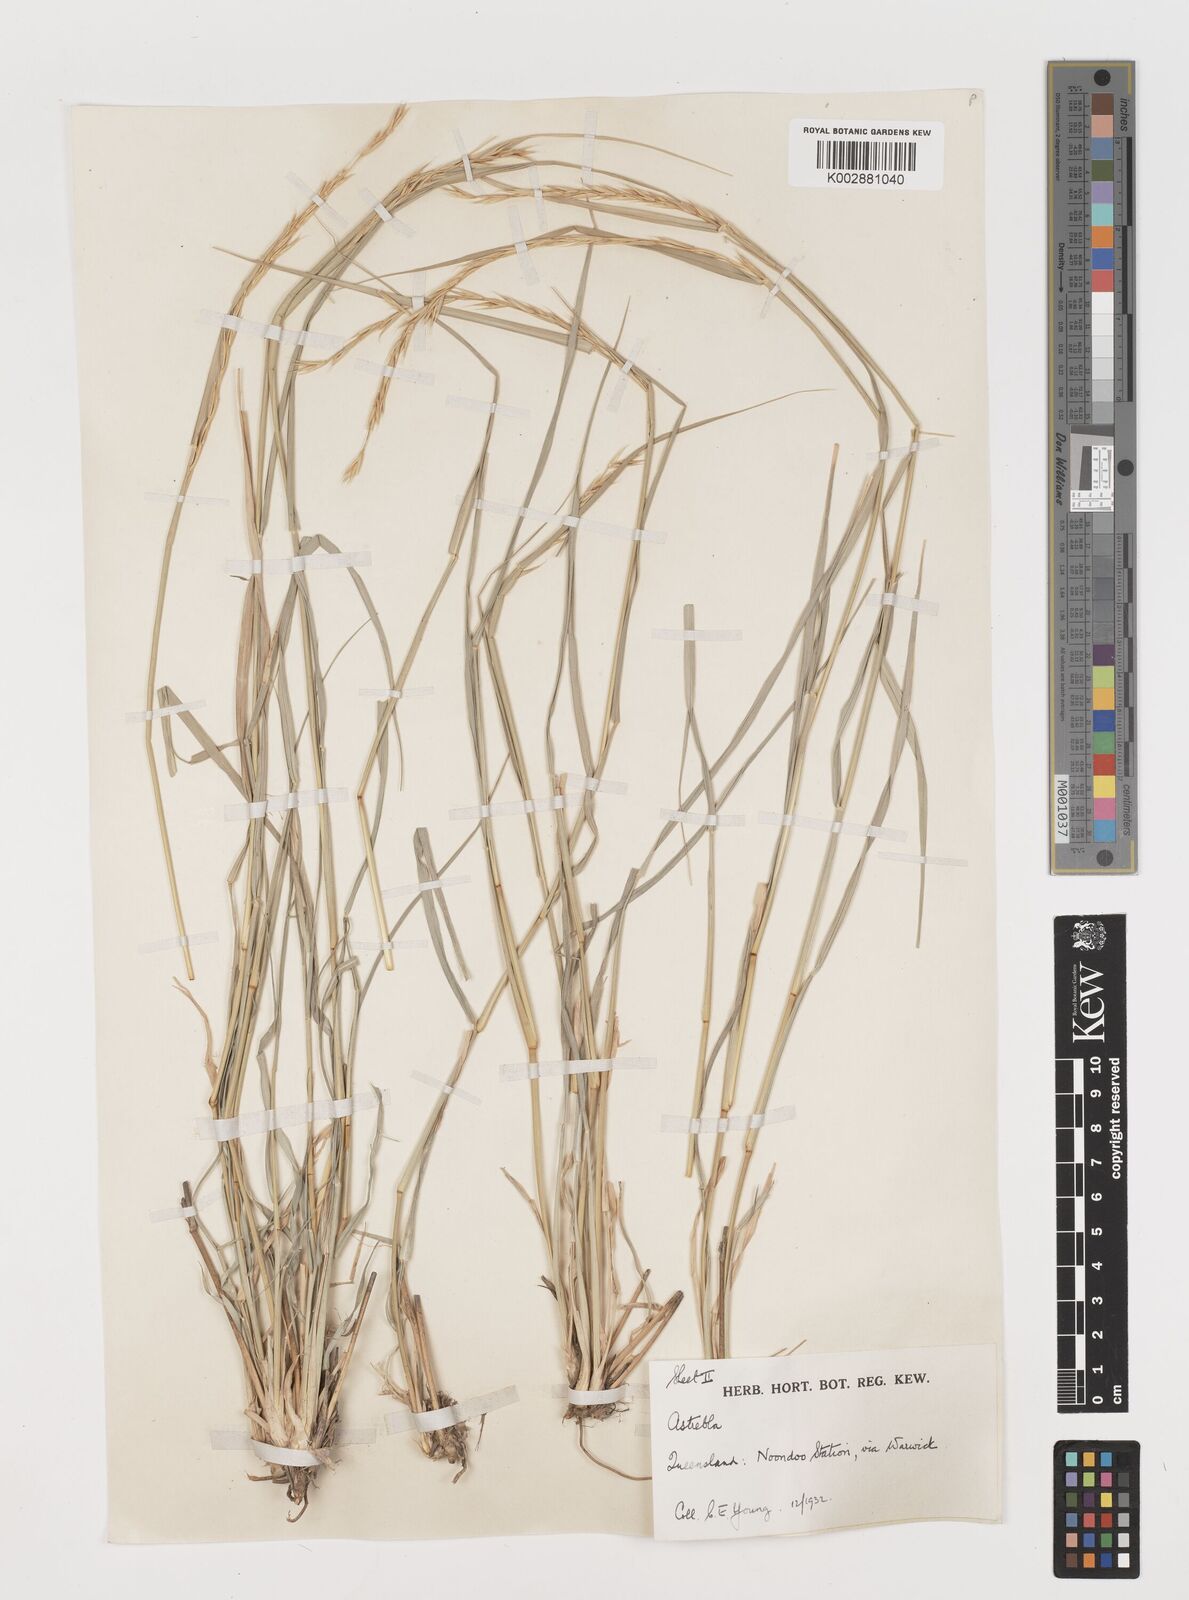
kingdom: Plantae
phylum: Tracheophyta
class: Liliopsida
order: Poales
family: Poaceae
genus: Astrebla
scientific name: Astrebla elymoides
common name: Hoop mitchell grass
